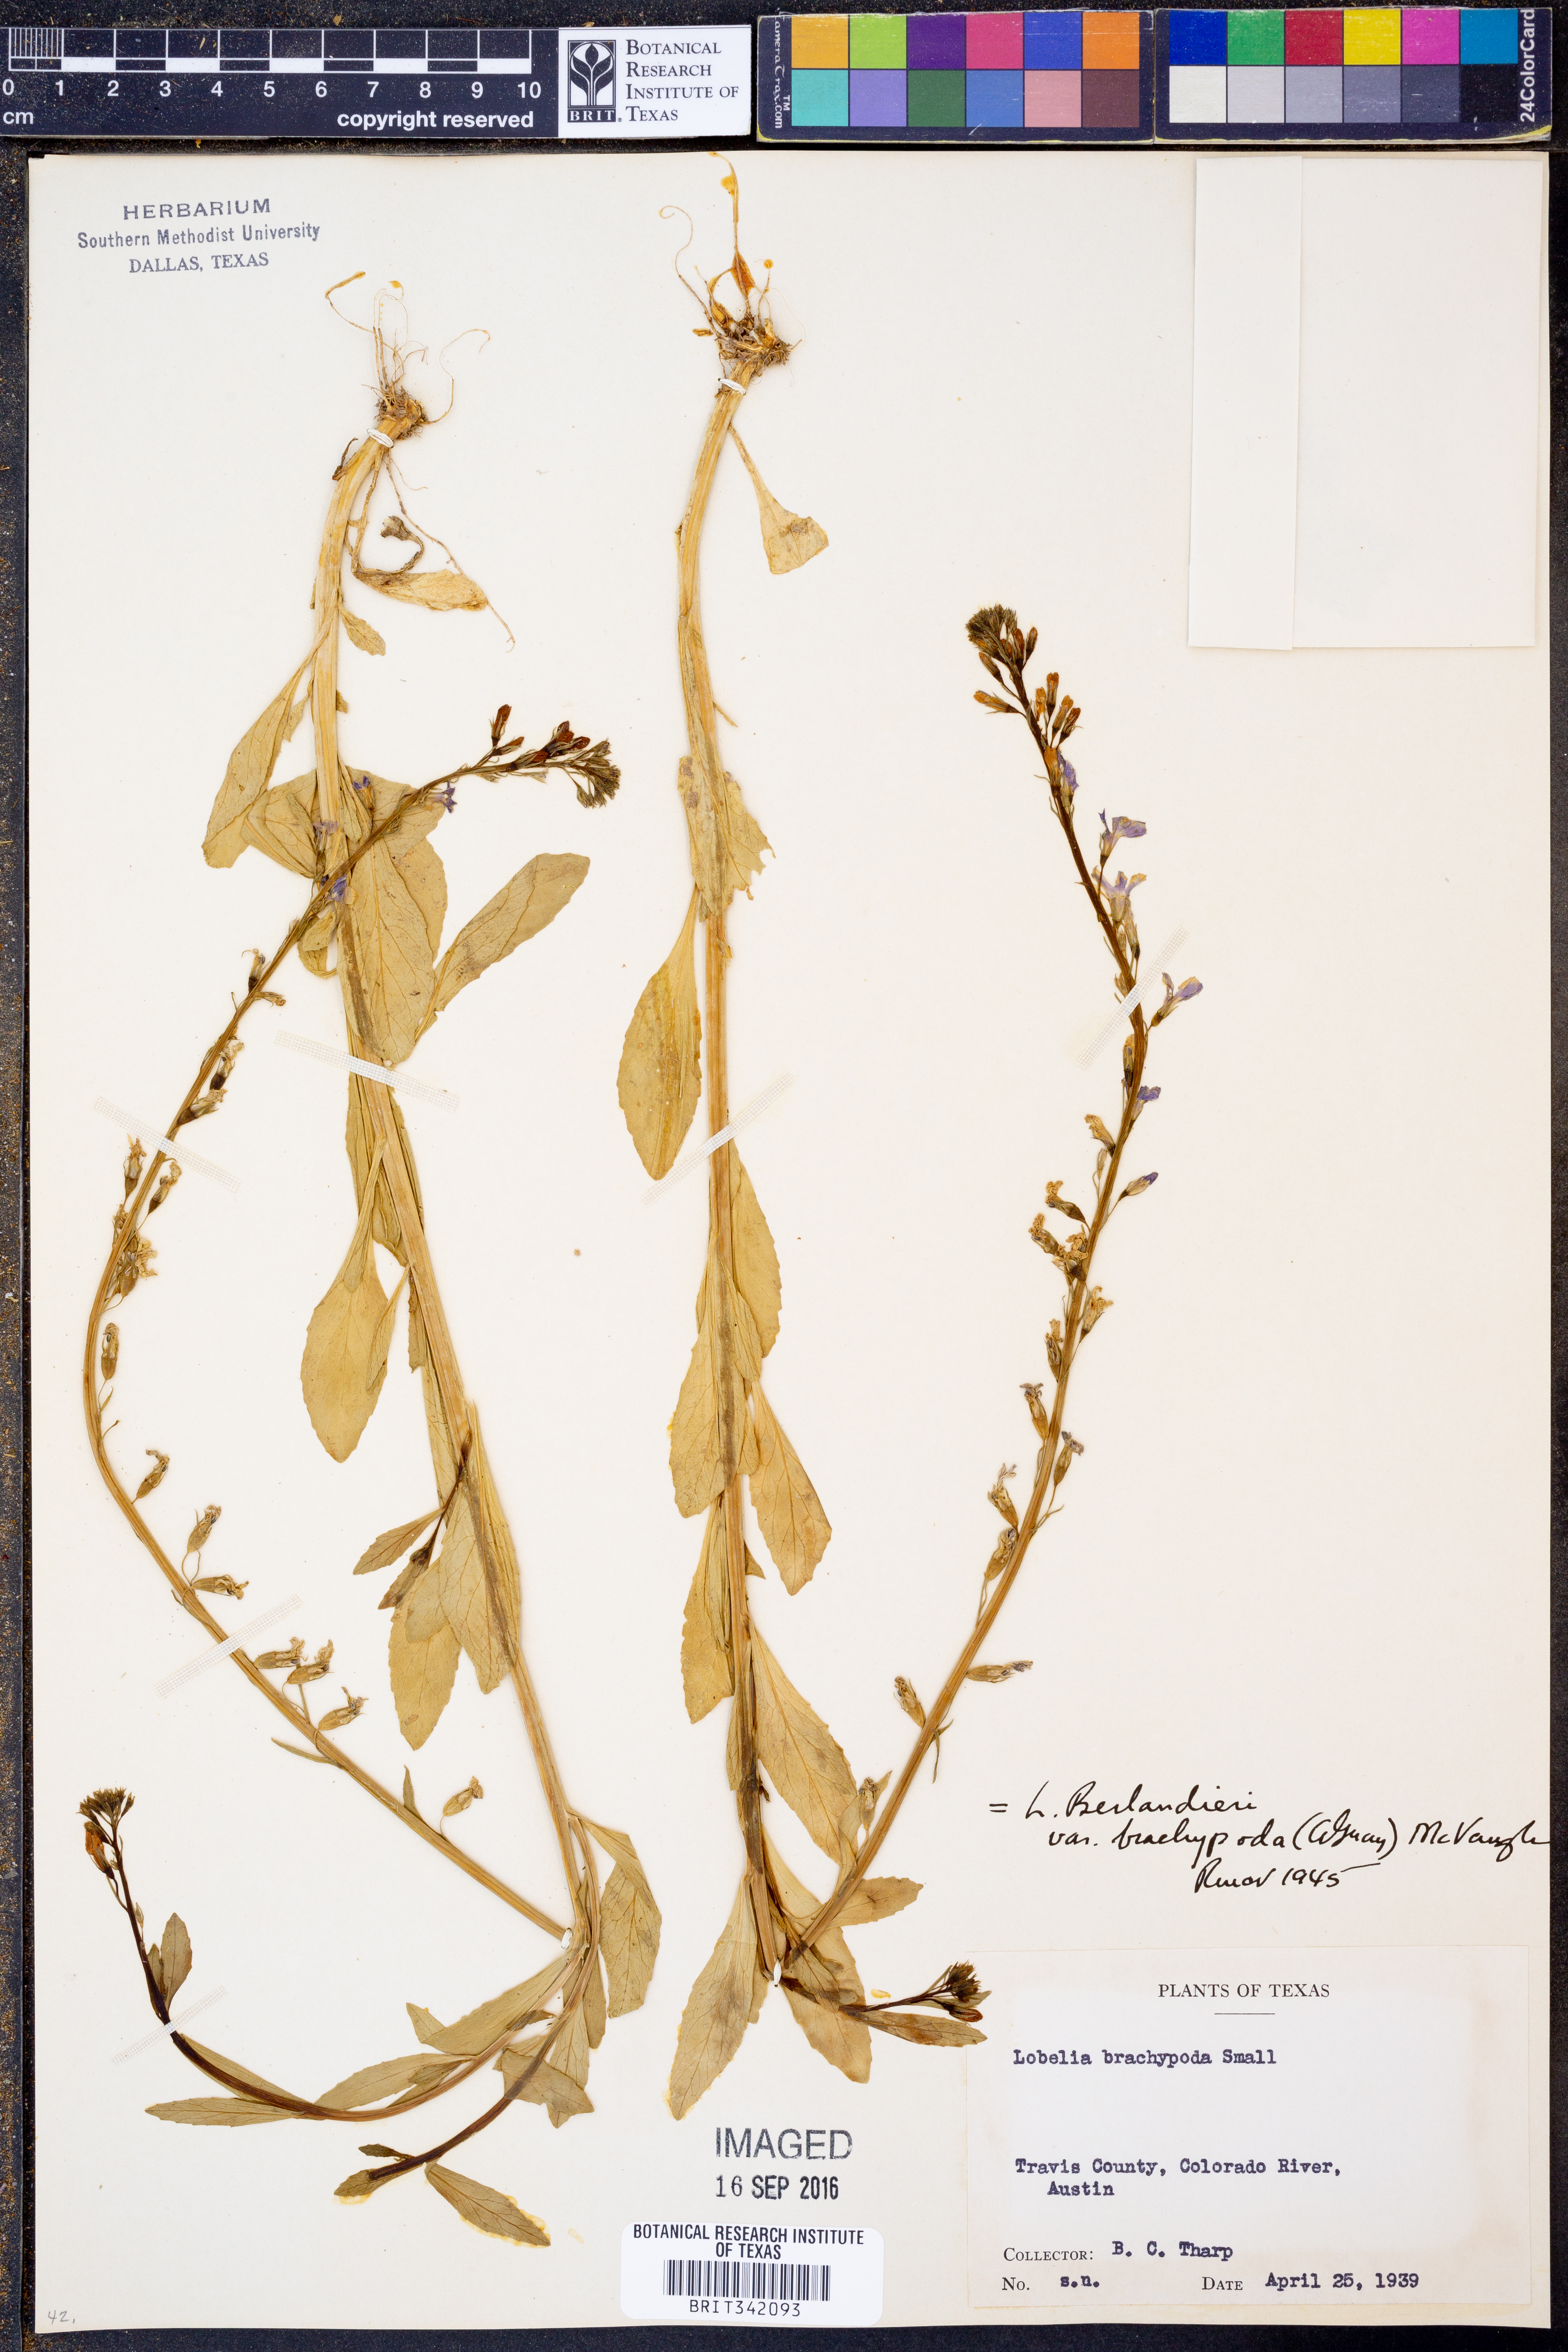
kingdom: Plantae
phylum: Tracheophyta
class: Magnoliopsida
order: Asterales
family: Campanulaceae
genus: Lobelia
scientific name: Lobelia berlandieri
